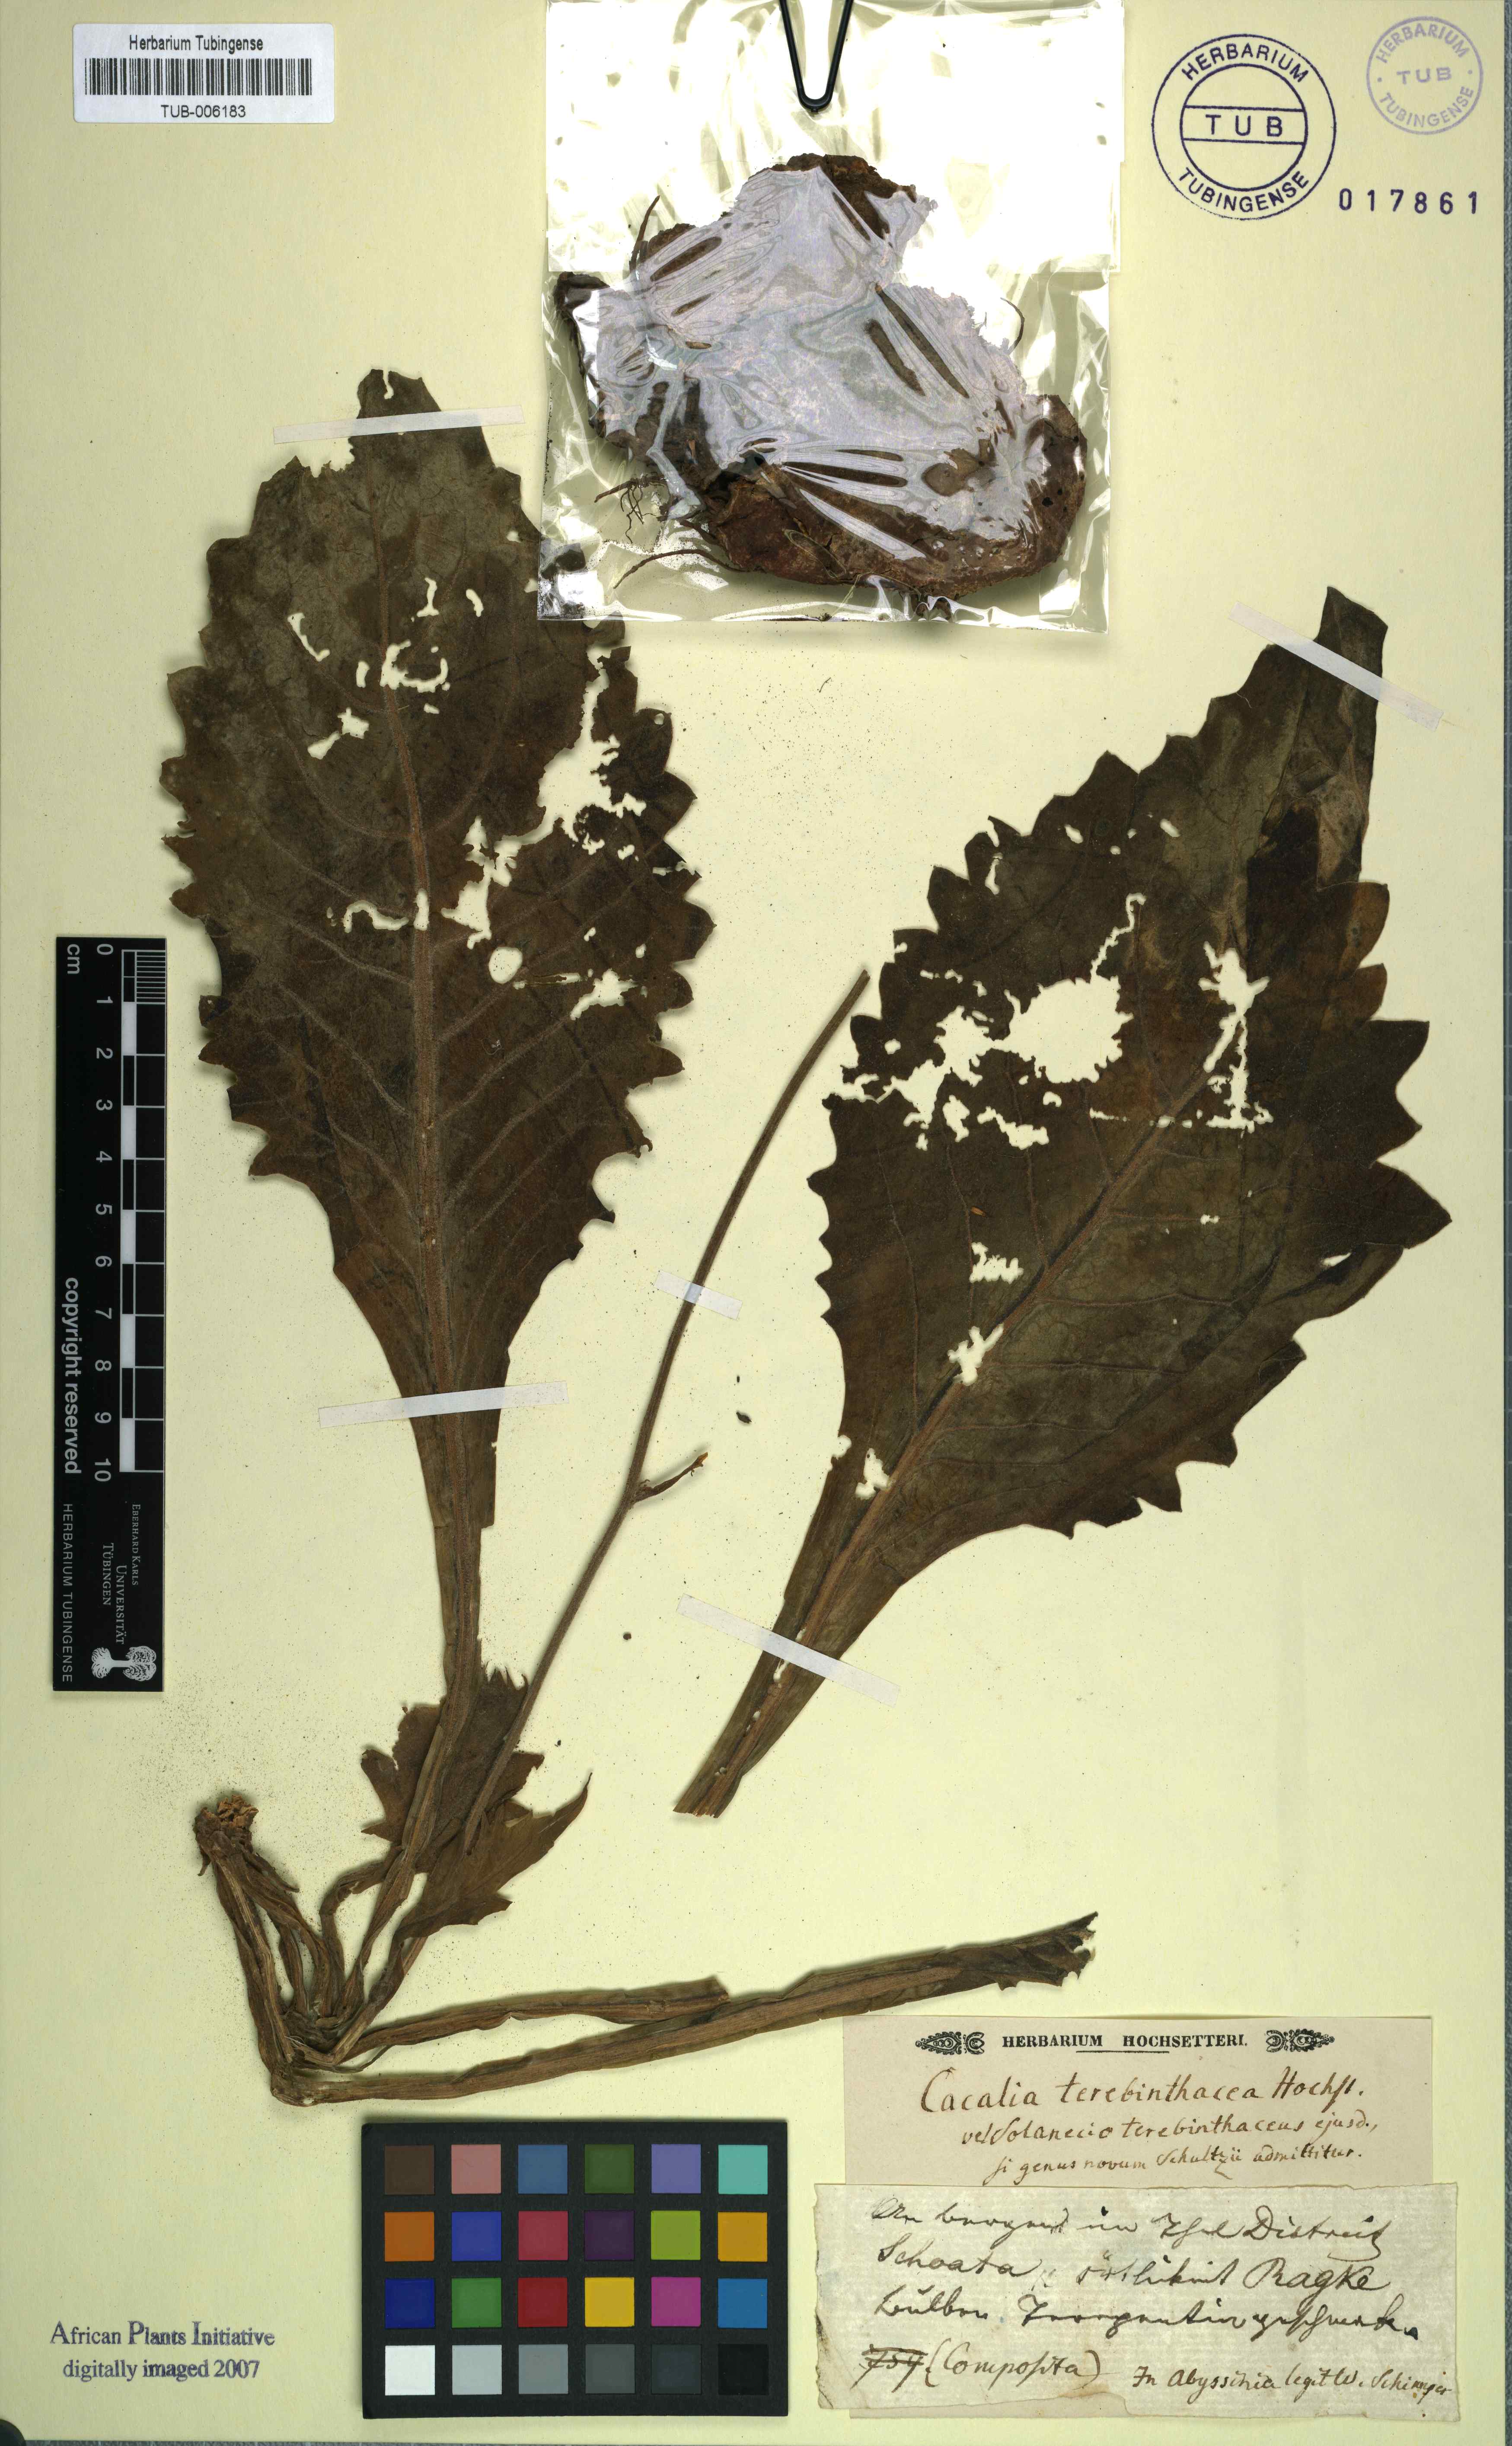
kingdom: Plantae
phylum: Tracheophyta
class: Magnoliopsida
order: Asterales
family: Asteraceae
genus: Cacalia
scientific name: Cacalia
